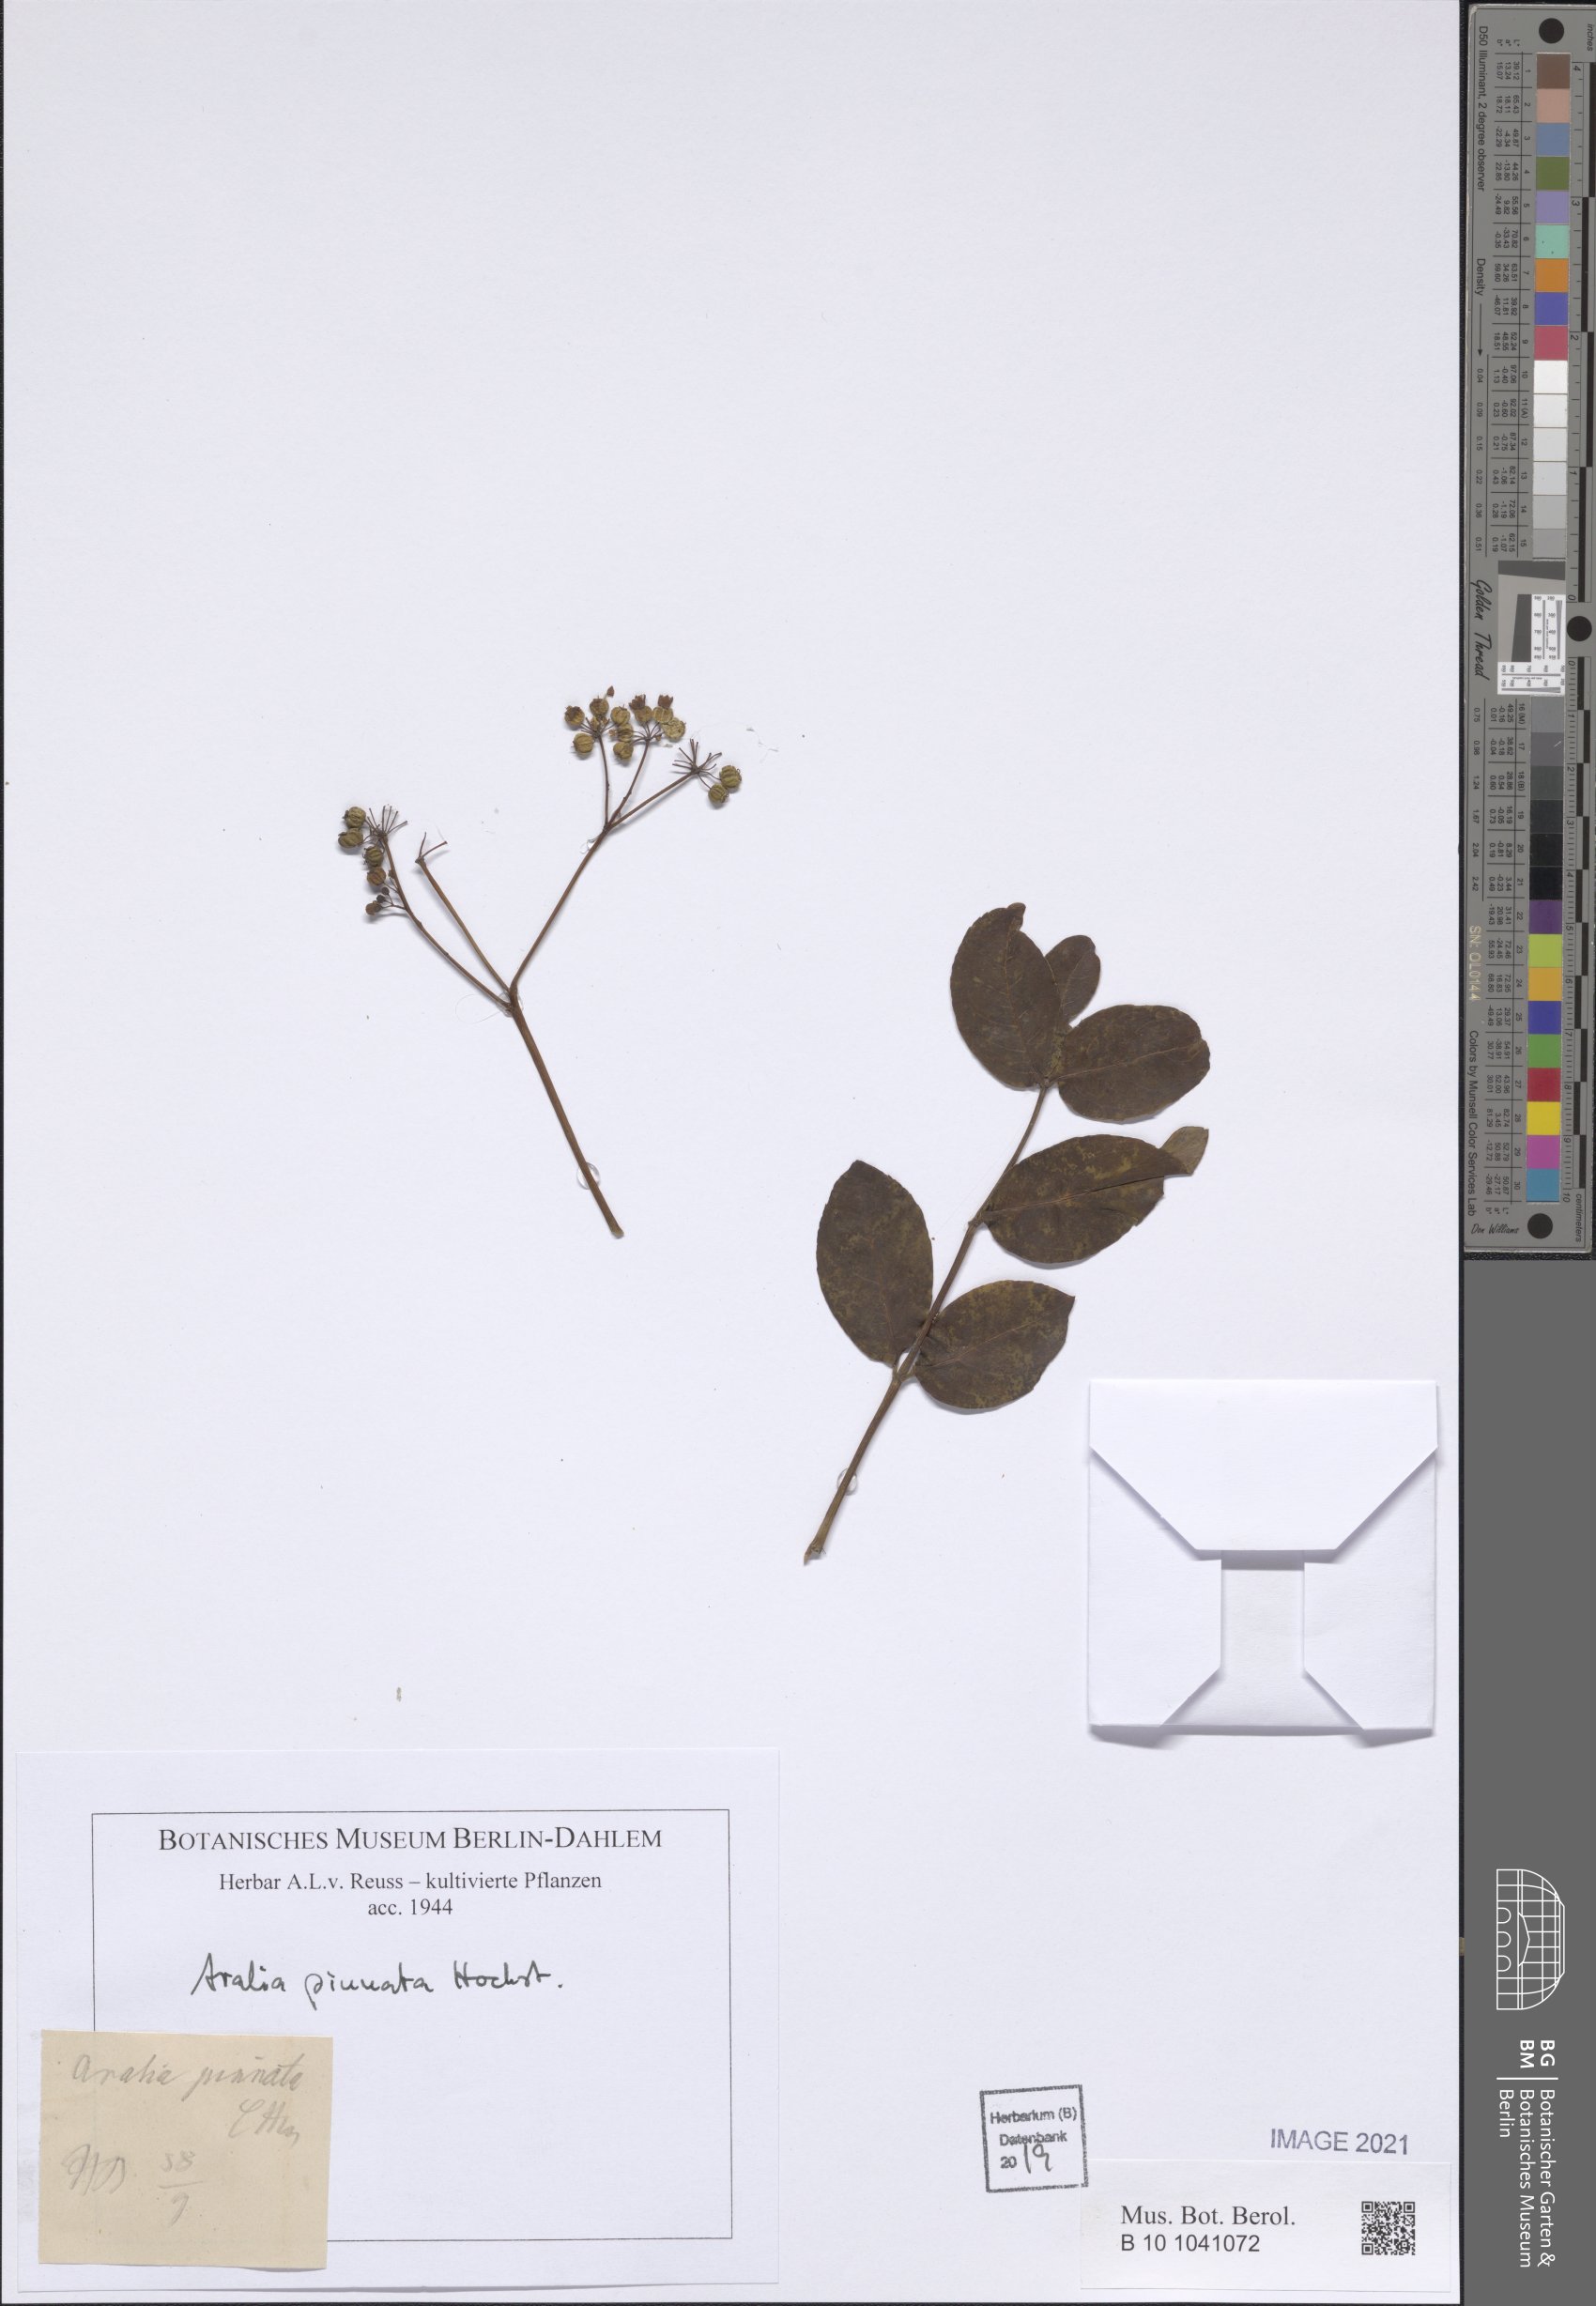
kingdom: Plantae
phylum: Tracheophyta
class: Magnoliopsida
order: Apiales
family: Araliaceae
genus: Polyscias
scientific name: Polyscias farinosa
